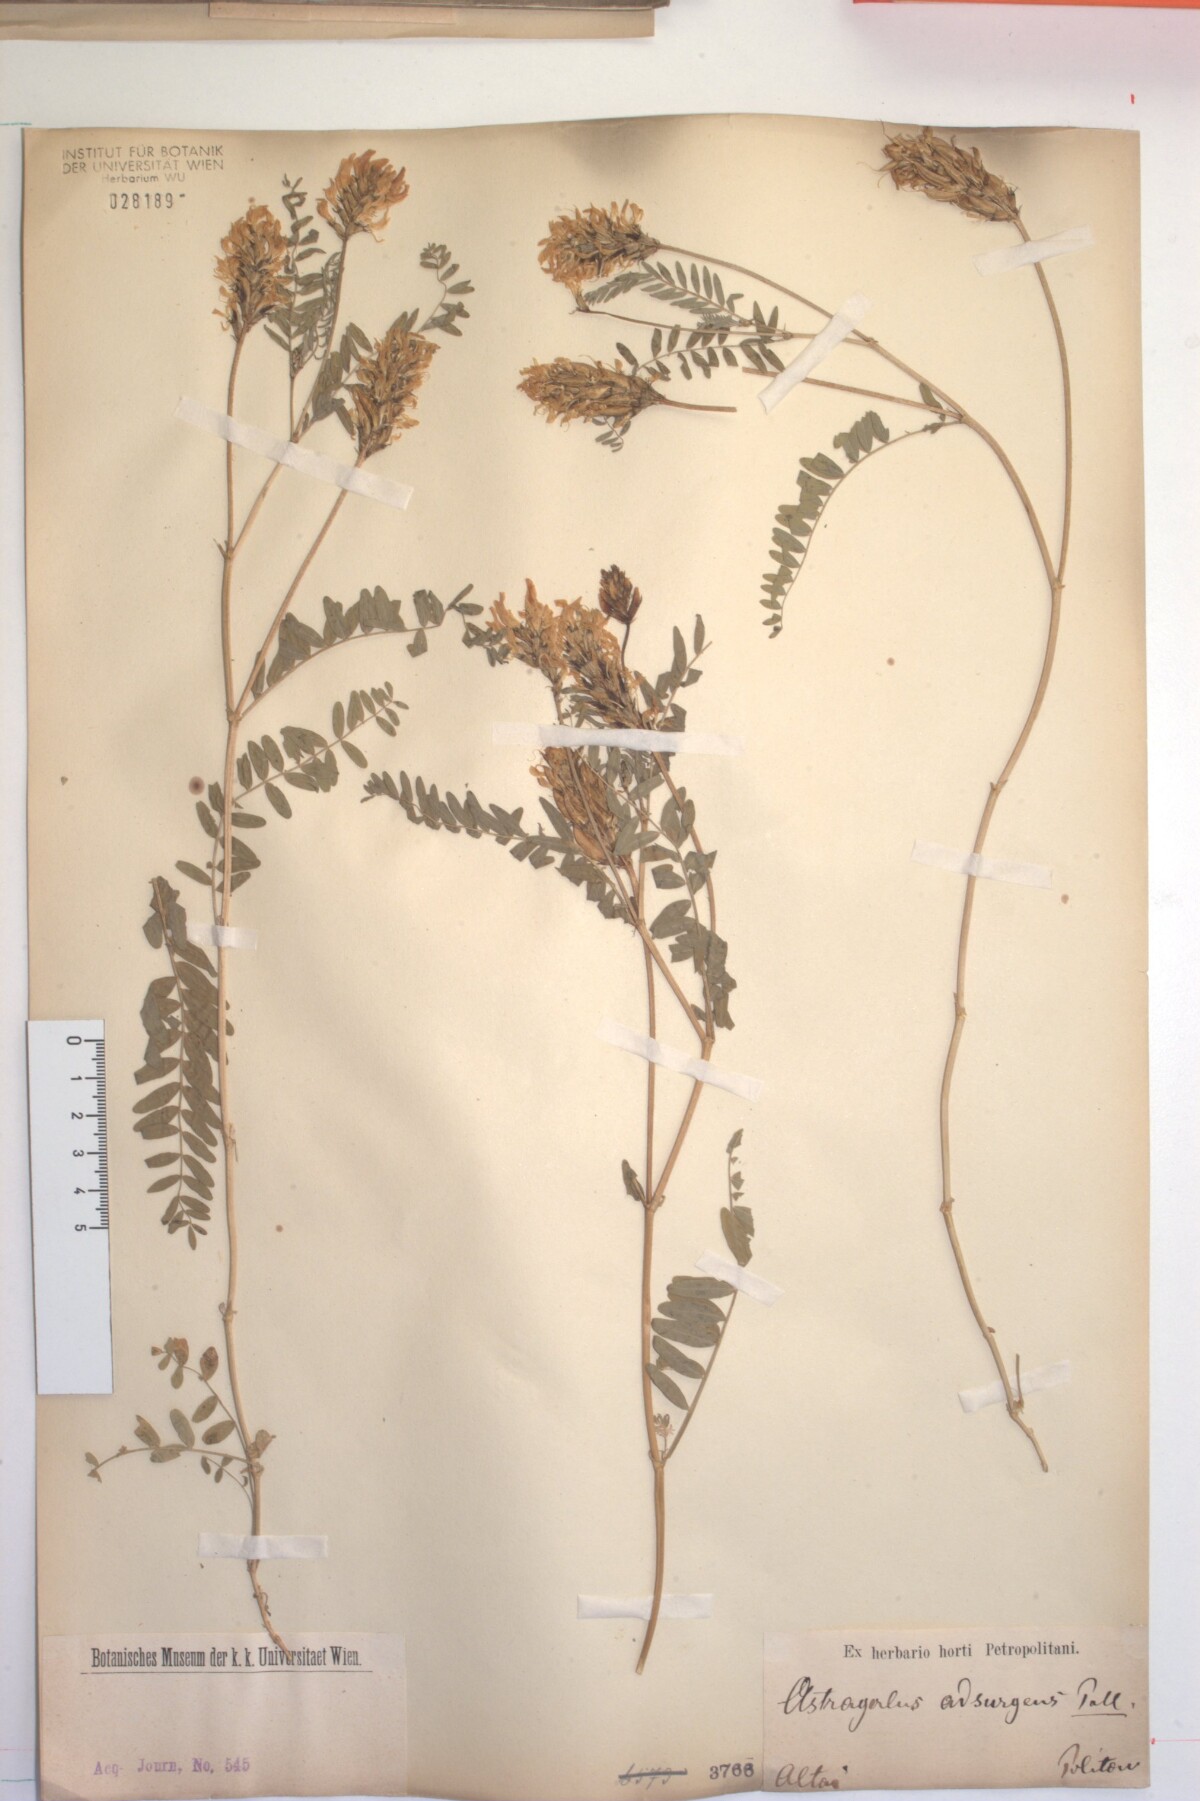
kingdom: Plantae
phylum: Tracheophyta
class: Magnoliopsida
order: Fabales
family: Fabaceae
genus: Astragalus
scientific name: Astragalus laxmannii
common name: Laxmann's milk-vetch
